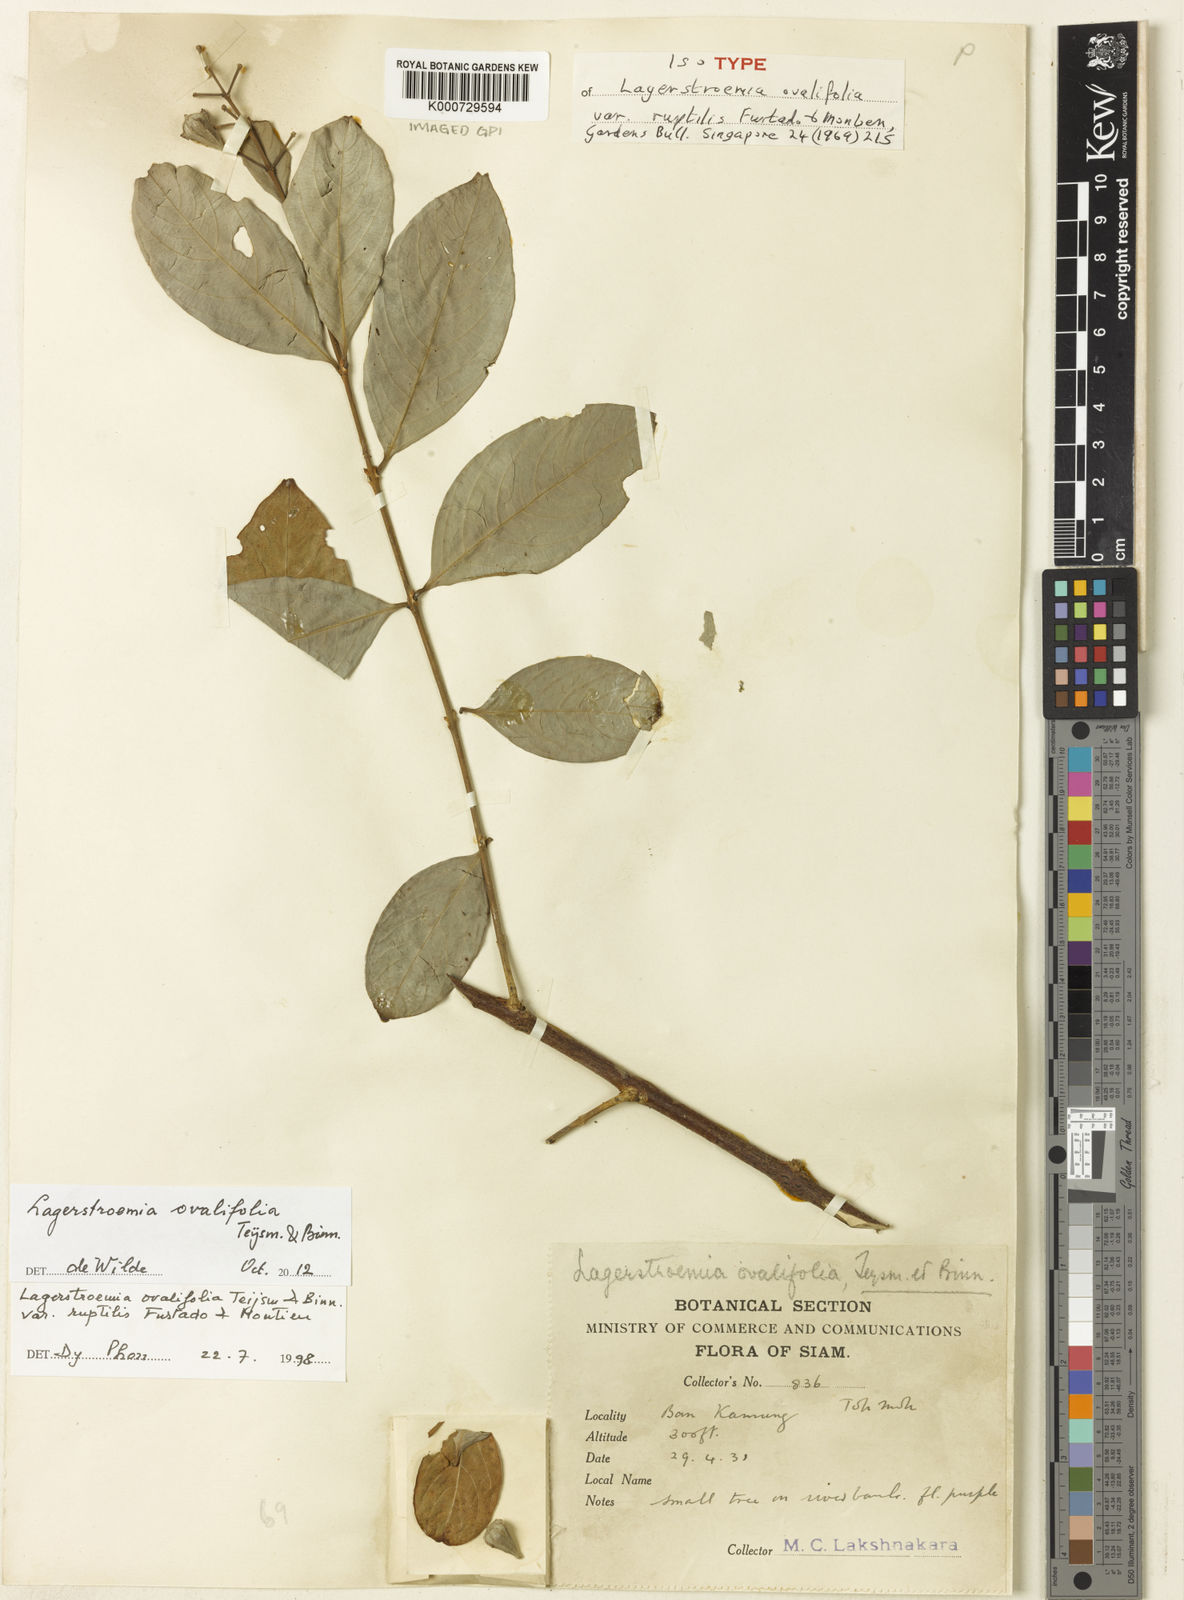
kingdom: Plantae
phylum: Tracheophyta
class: Magnoliopsida
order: Myrtales
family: Lythraceae
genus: Lagerstroemia
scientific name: Lagerstroemia ovalifolia
